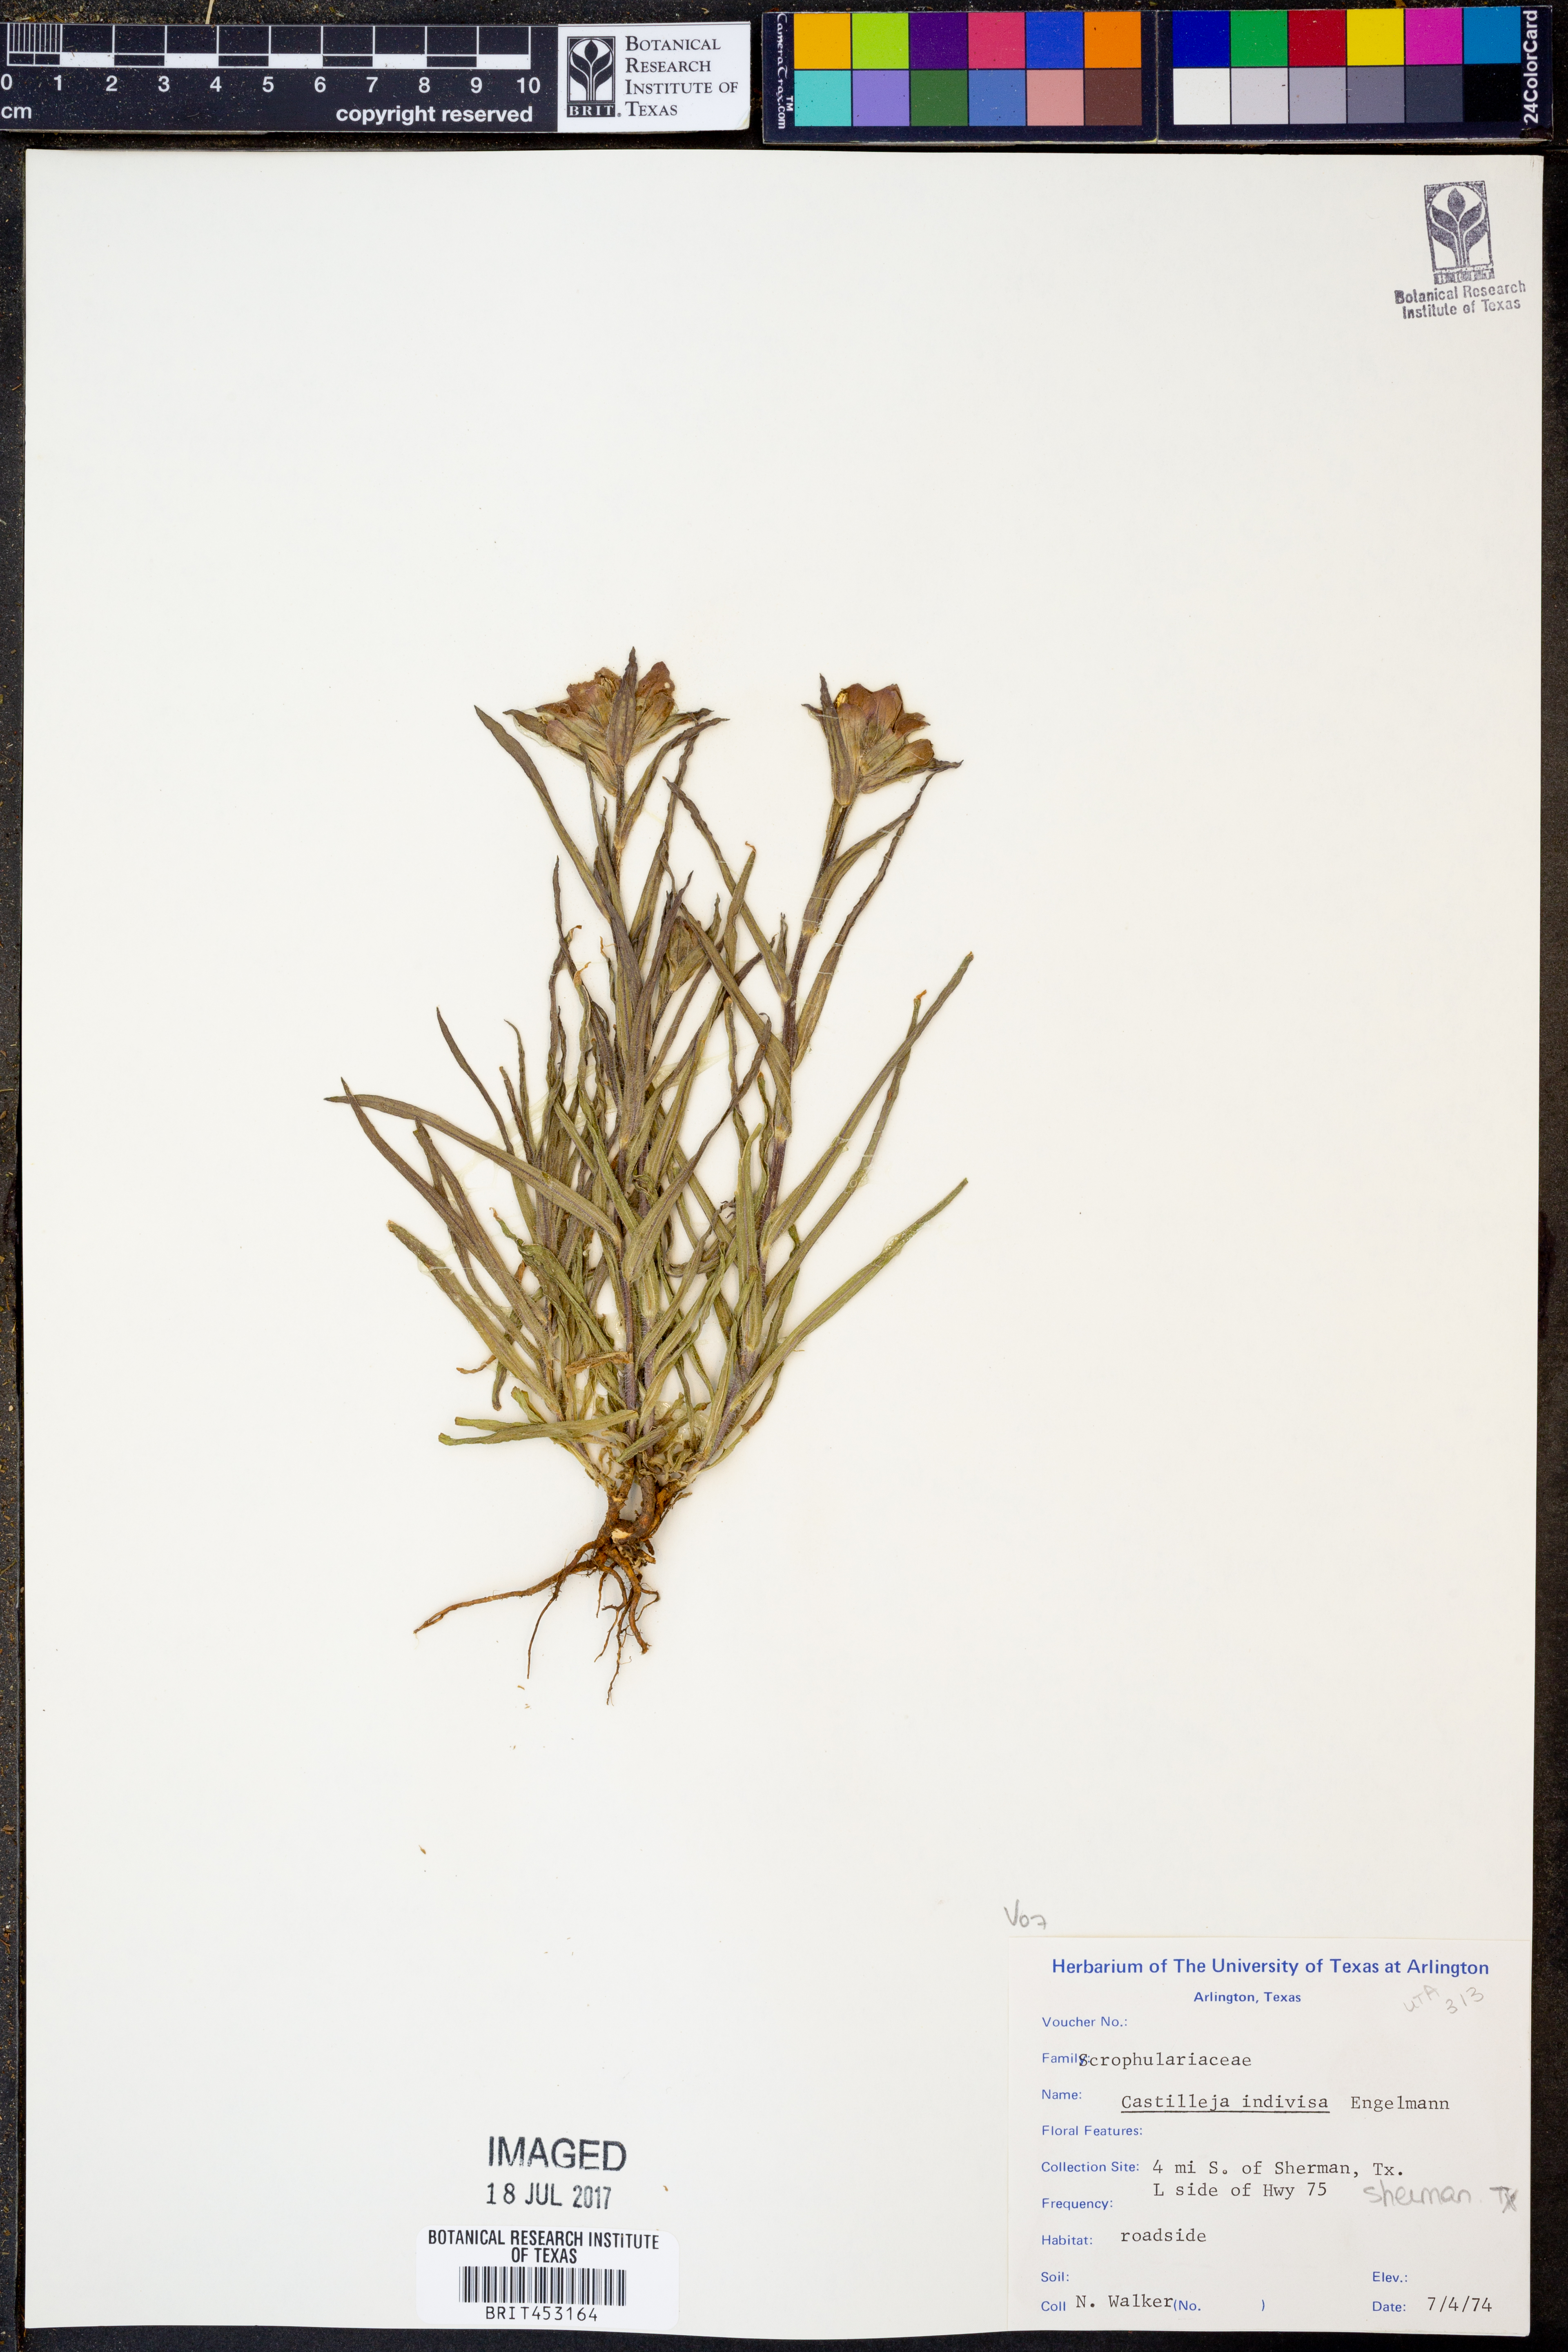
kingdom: Plantae
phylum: Tracheophyta
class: Magnoliopsida
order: Lamiales
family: Orobanchaceae
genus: Castilleja
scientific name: Castilleja indivisa
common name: Texas paintbrush
